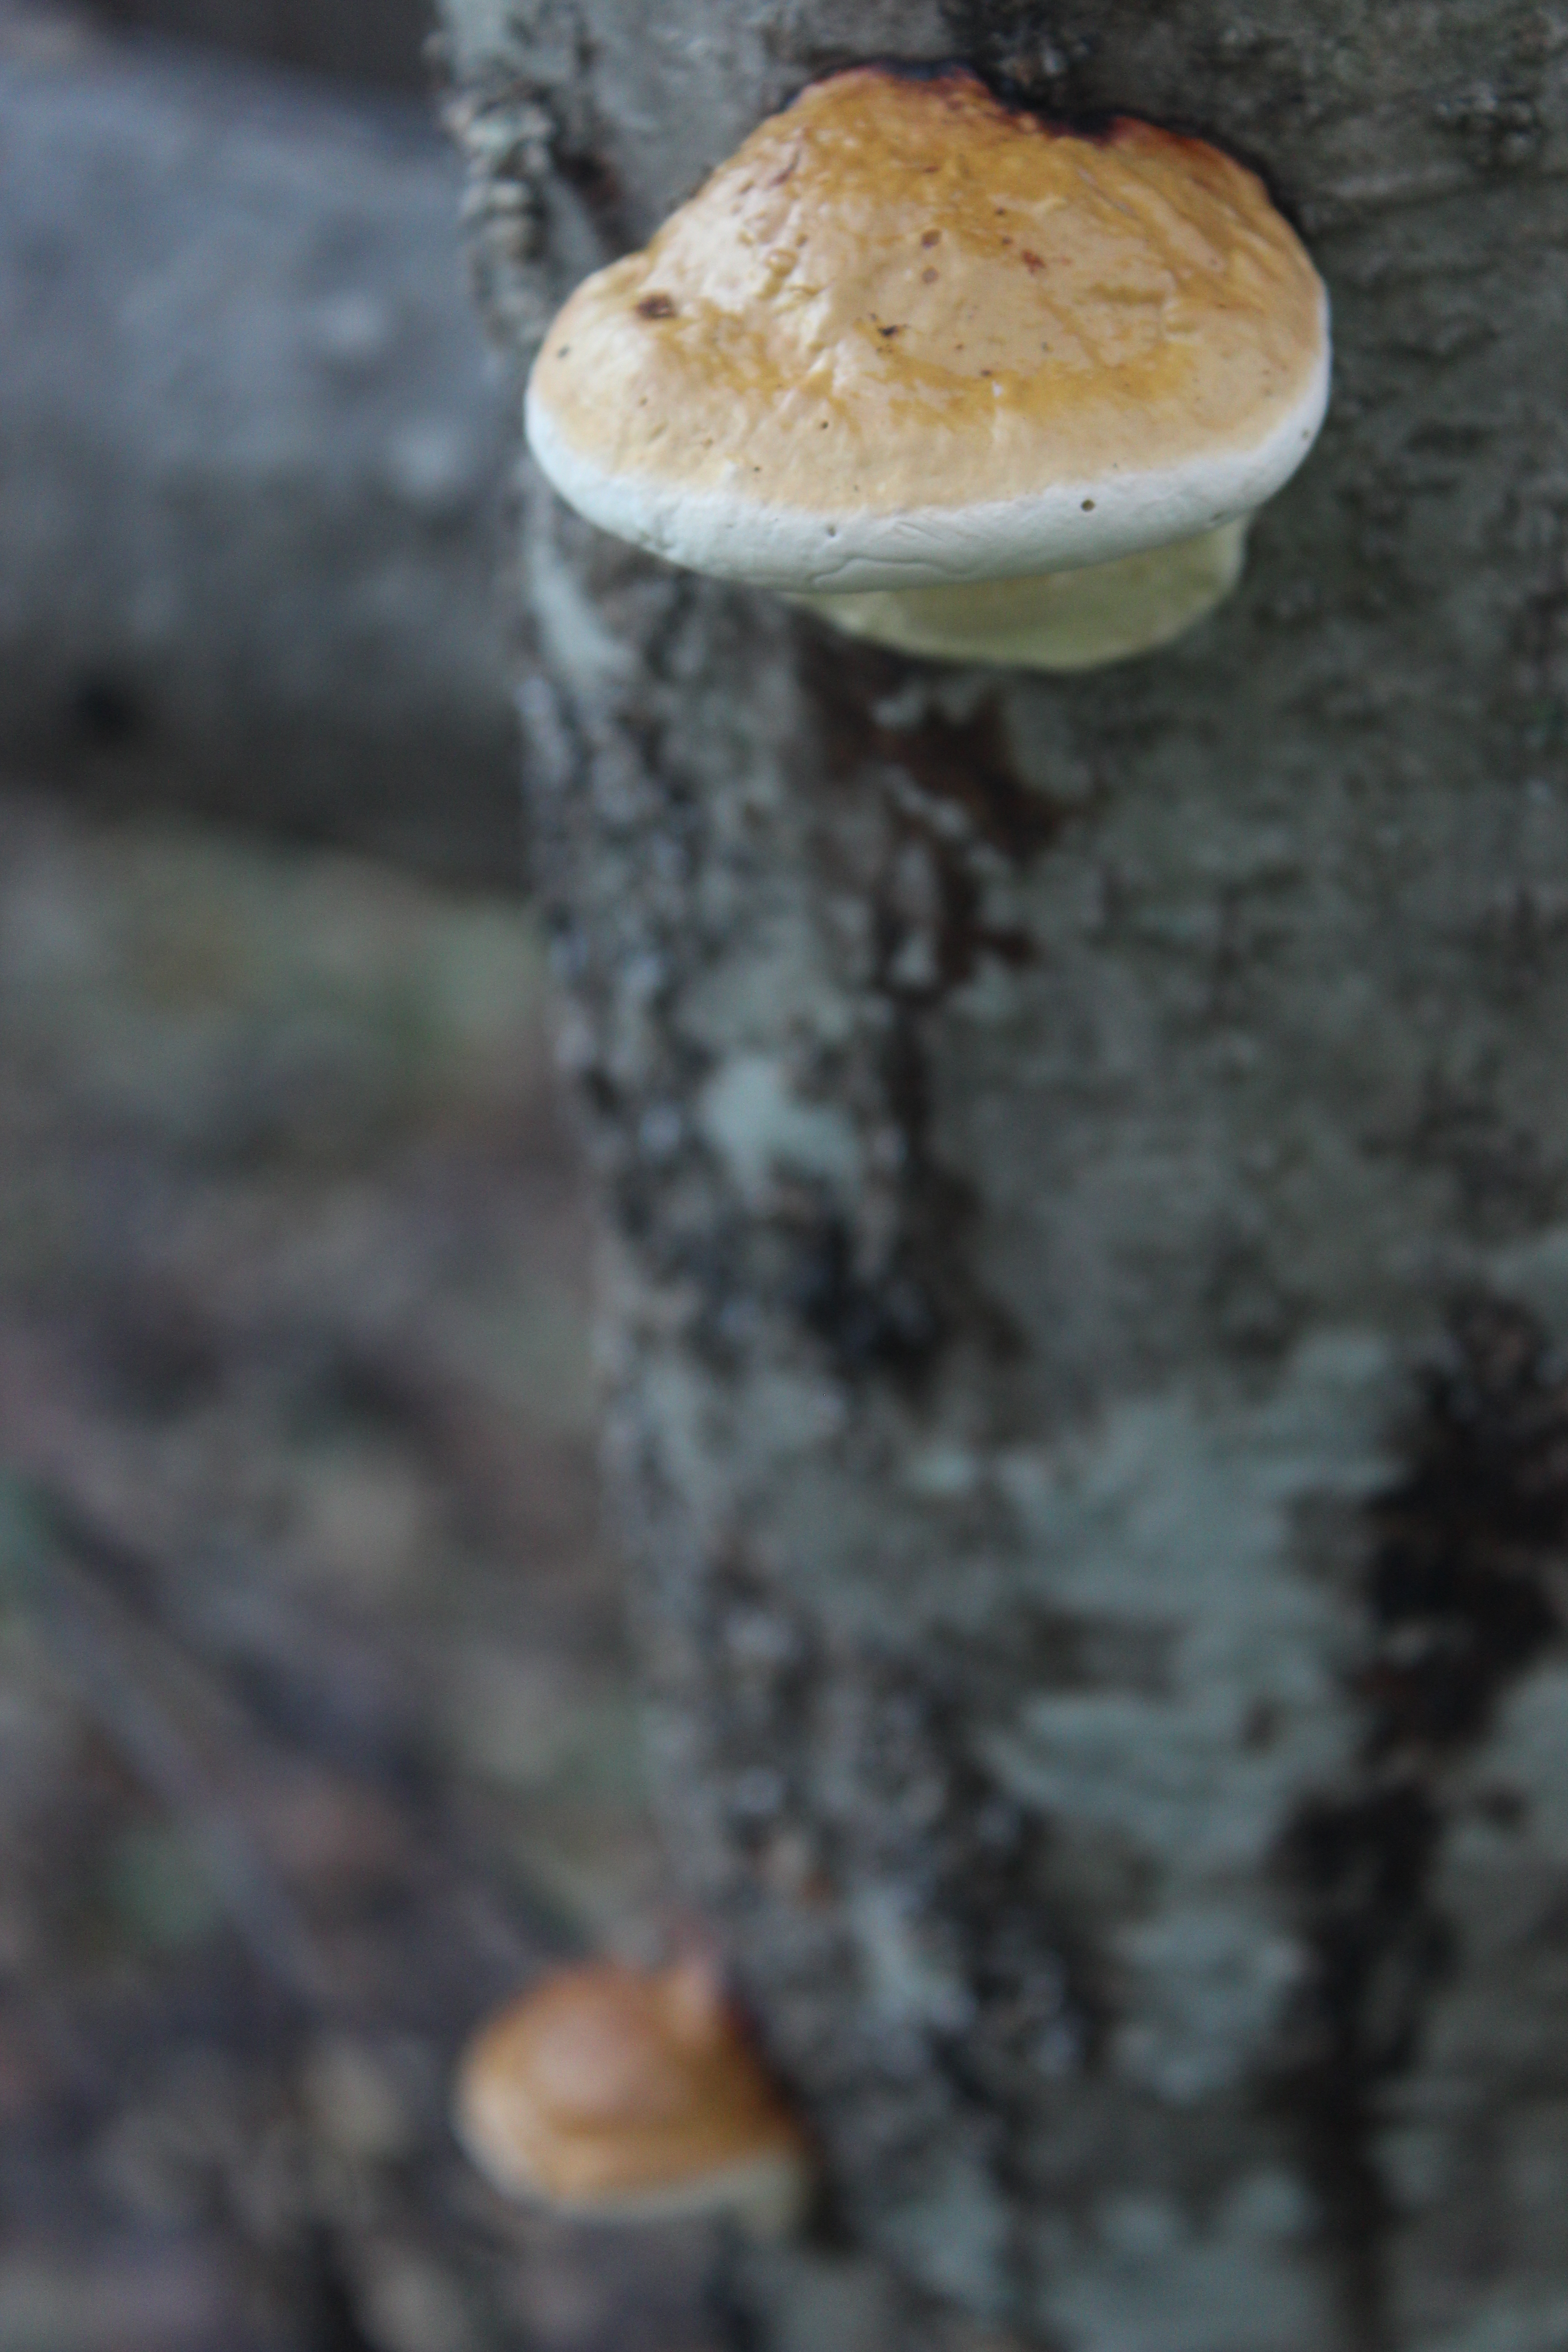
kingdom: Fungi
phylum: Basidiomycota
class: Agaricomycetes
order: Polyporales
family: Fomitopsidaceae
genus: Fomitopsis
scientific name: Fomitopsis pinicola
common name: Red-belted bracket
